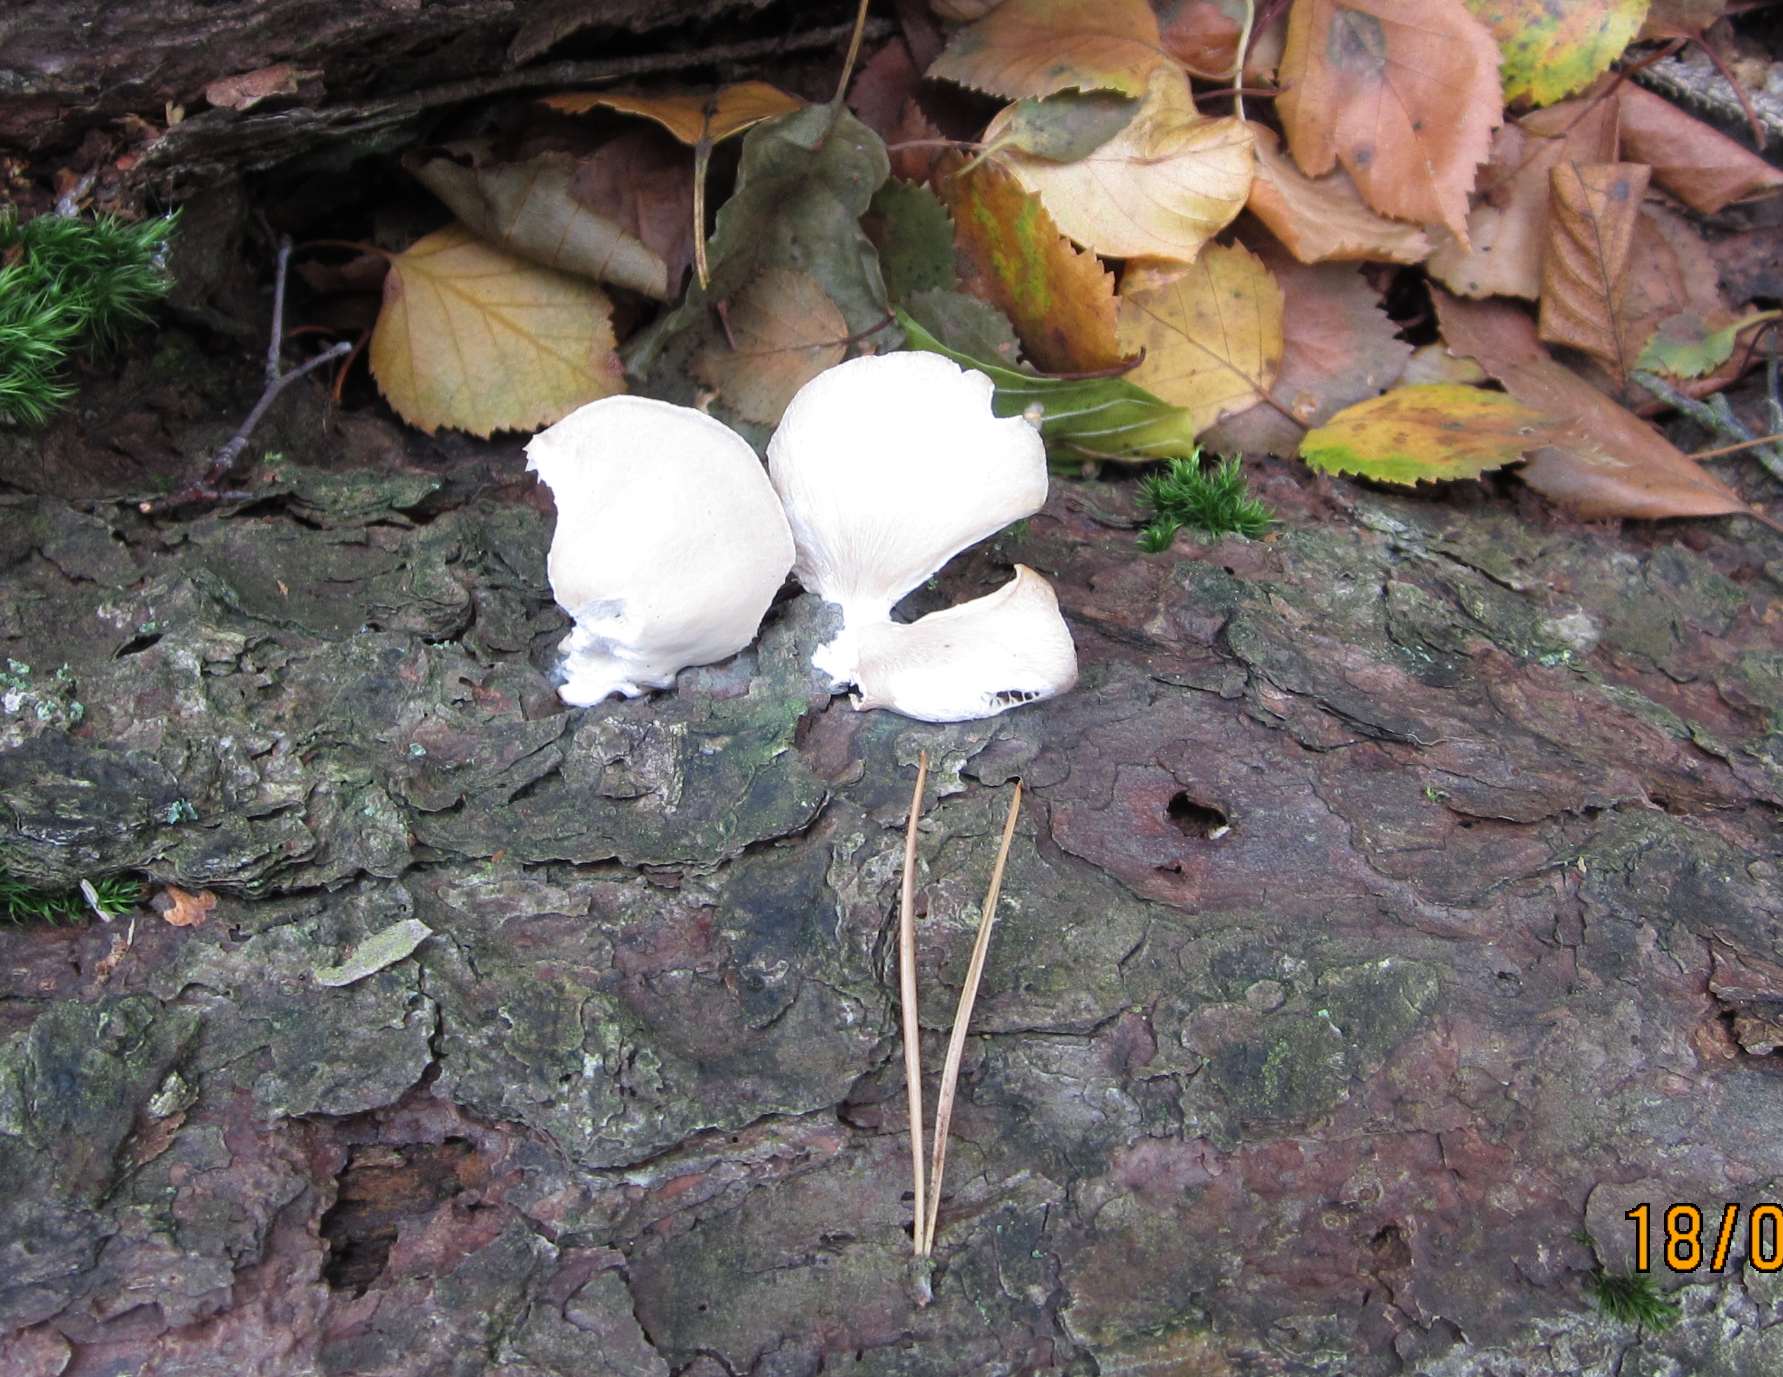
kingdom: Fungi
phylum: Basidiomycota
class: Agaricomycetes
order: Agaricales
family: Pleurotaceae
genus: Pleurotus
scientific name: Pleurotus pulmonarius
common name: sommer-østershat
